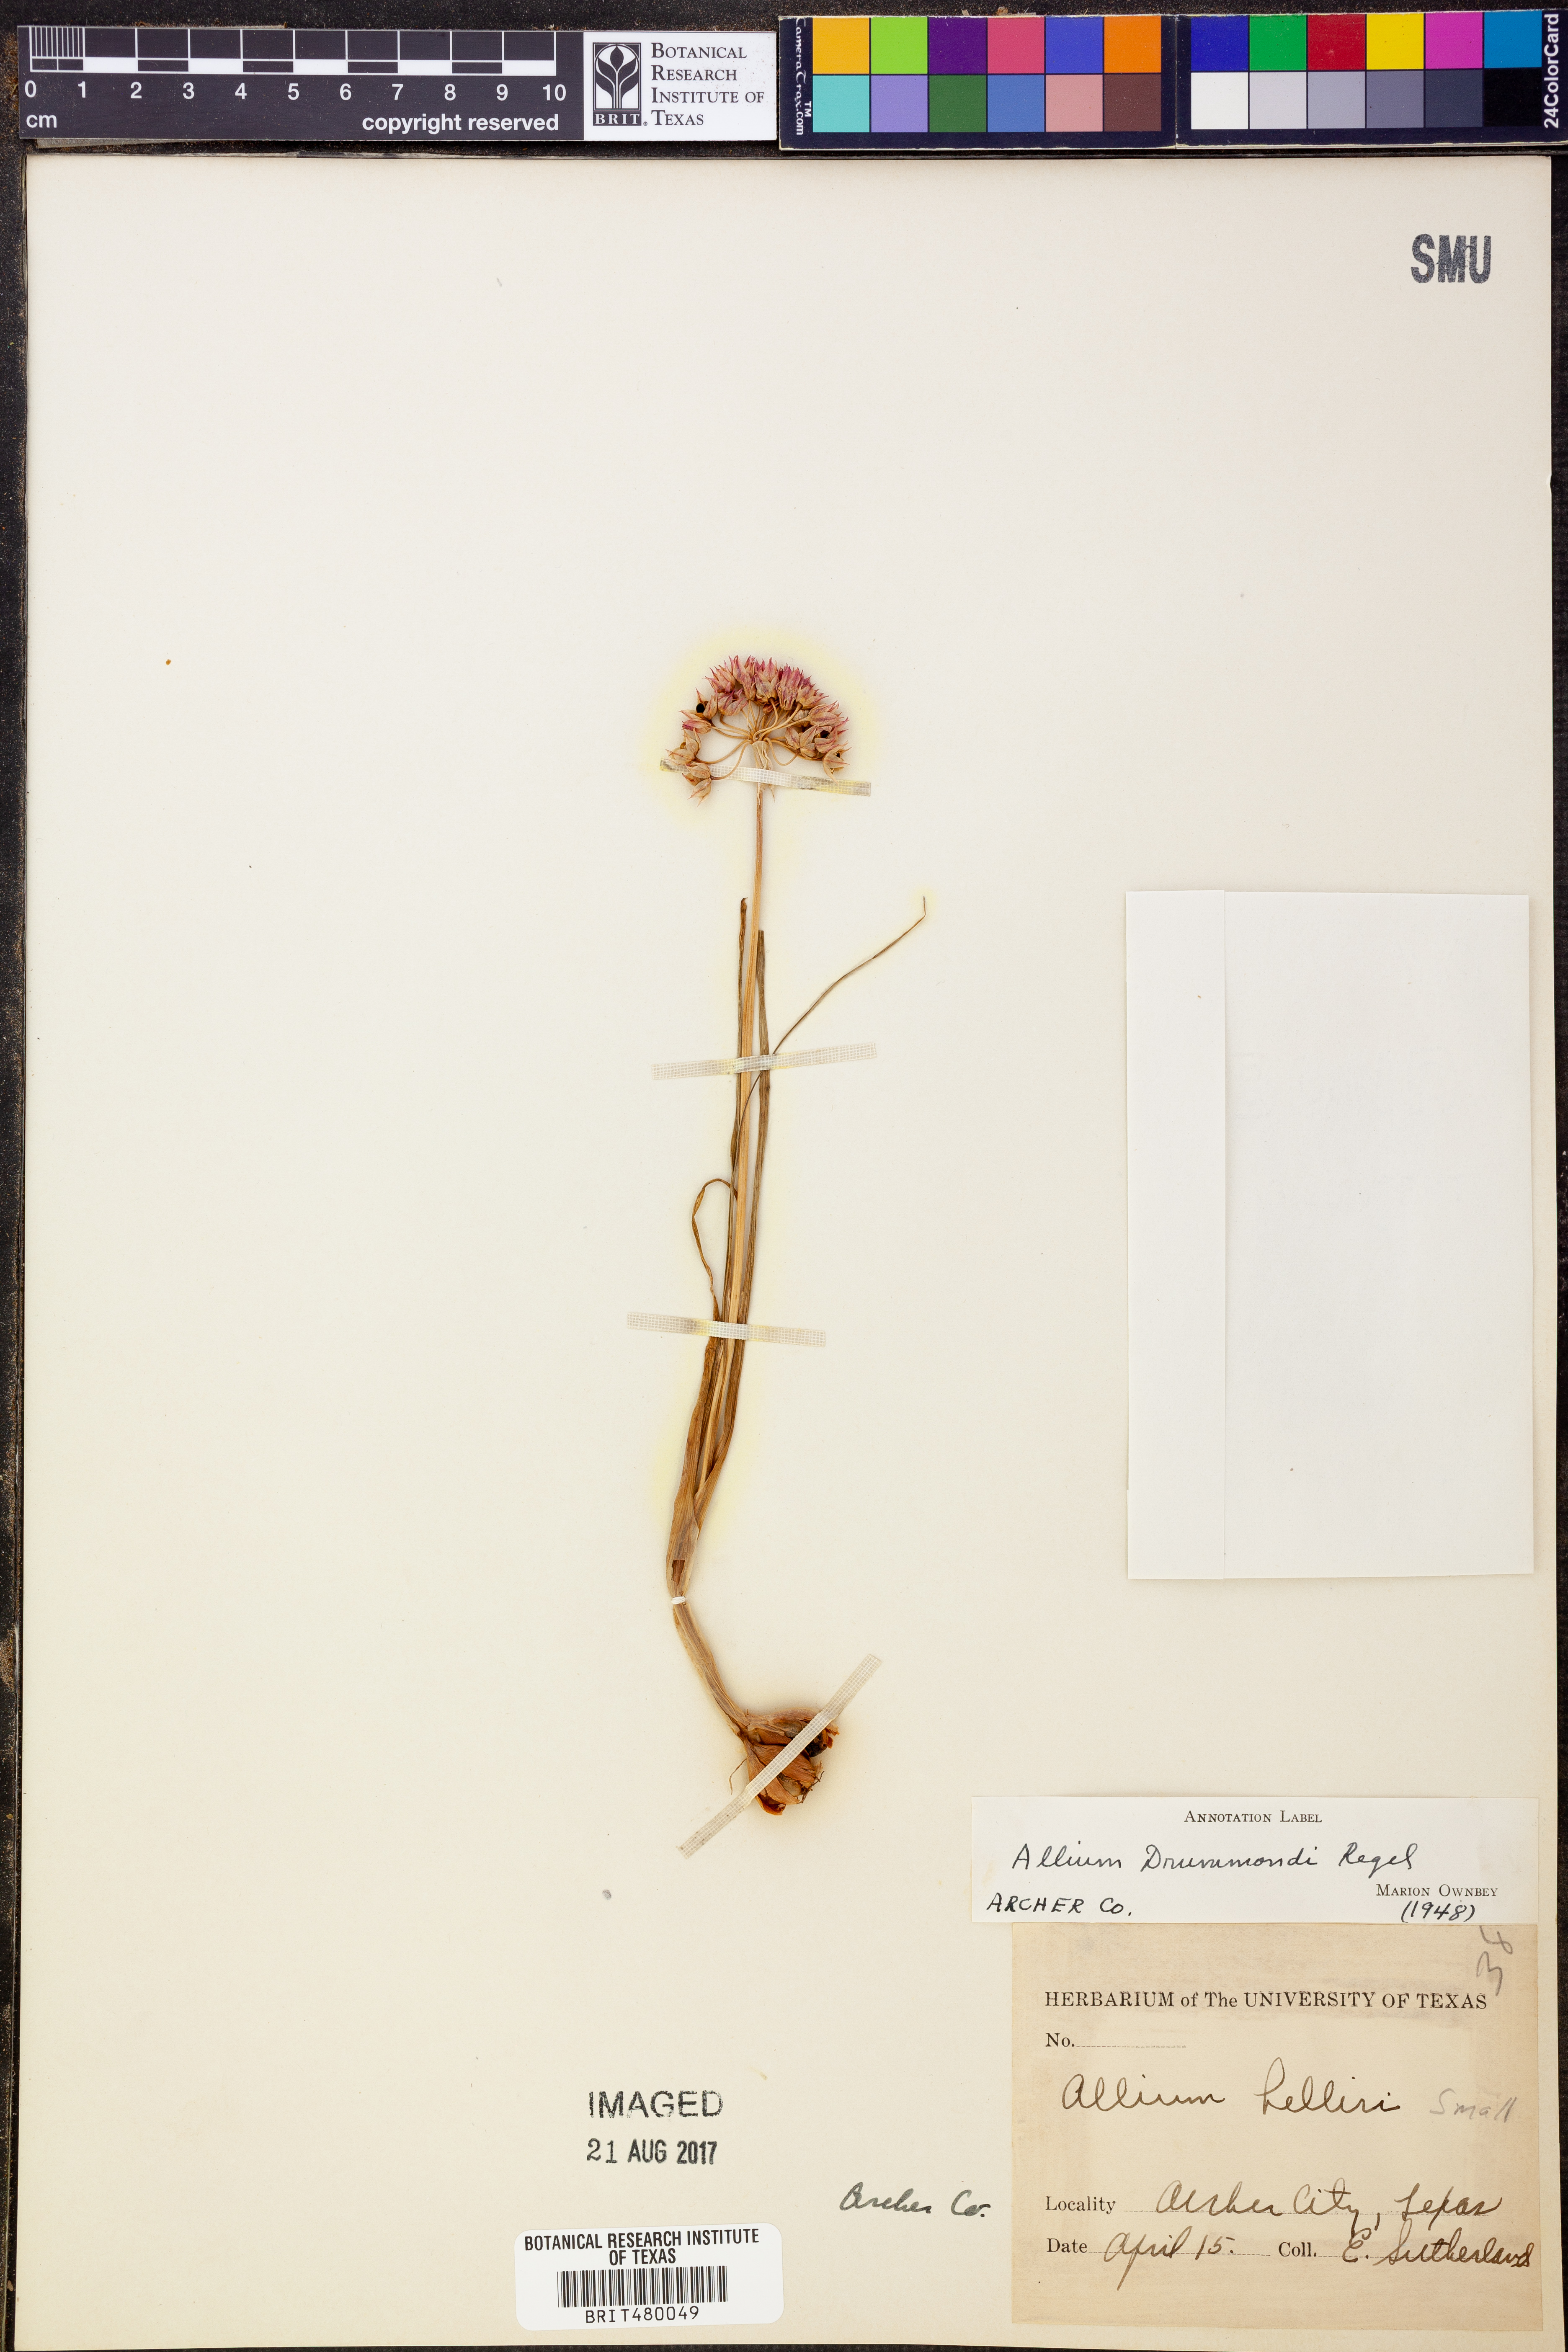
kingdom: Plantae
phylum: Tracheophyta
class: Liliopsida
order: Asparagales
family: Amaryllidaceae
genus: Allium
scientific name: Allium drummondii
